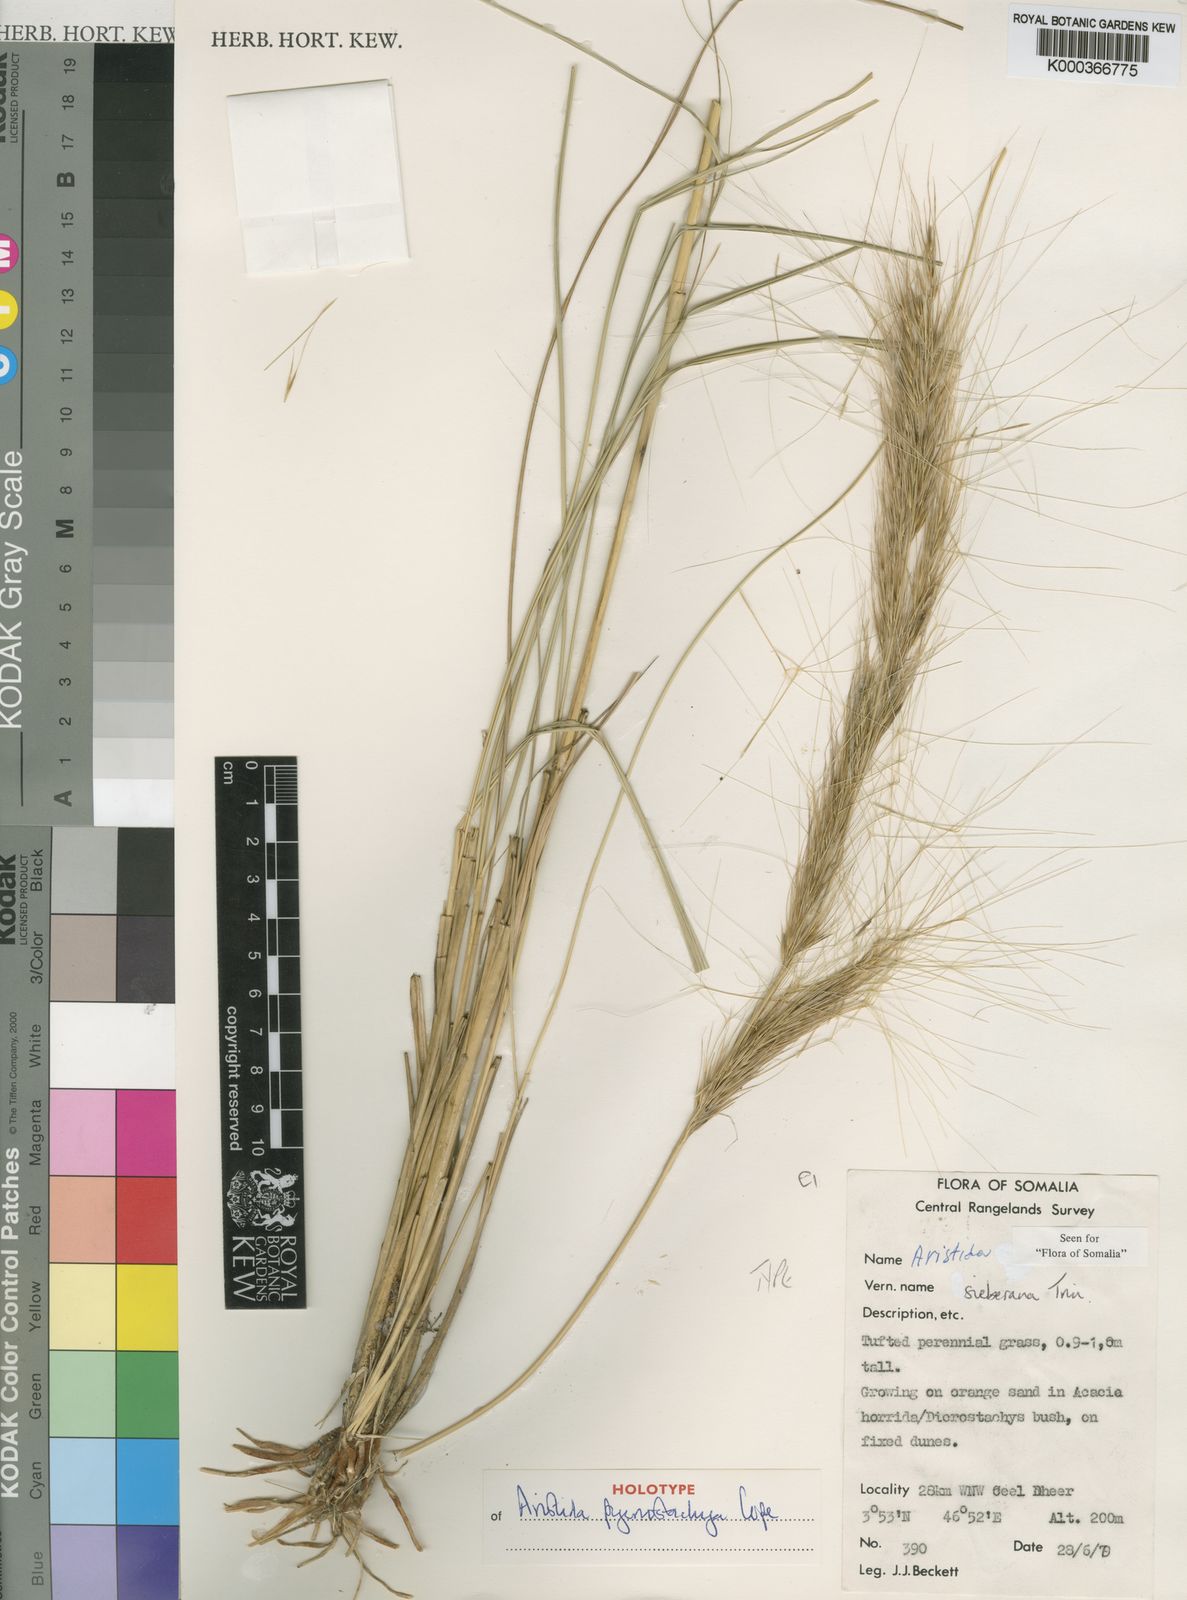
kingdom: Plantae
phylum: Tracheophyta
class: Liliopsida
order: Poales
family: Poaceae
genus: Aristida
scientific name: Aristida pycnostachya
